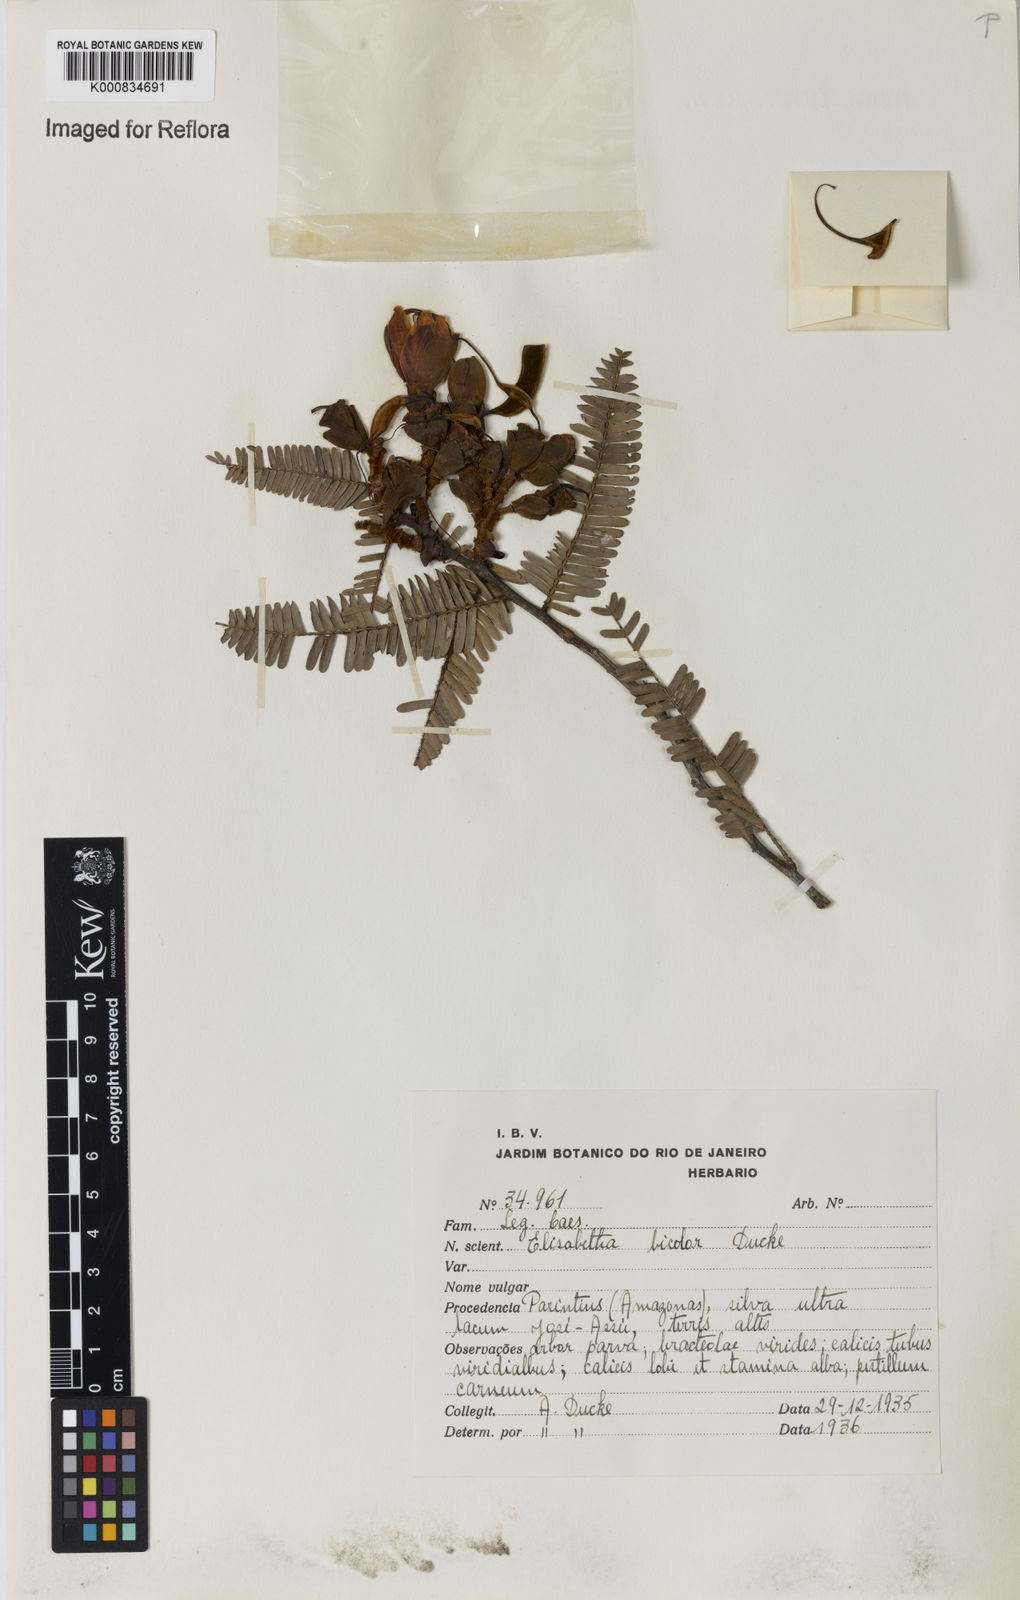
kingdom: Plantae
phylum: Tracheophyta
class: Magnoliopsida
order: Fabales
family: Fabaceae
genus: Paloue
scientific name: Paloue bicolor
